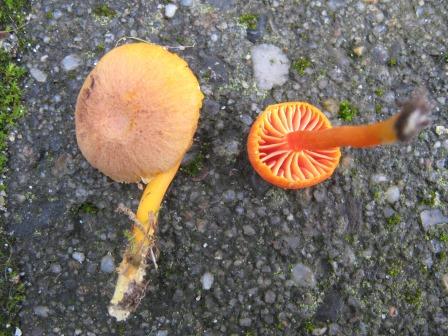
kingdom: Fungi
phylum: Basidiomycota
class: Agaricomycetes
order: Agaricales
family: Hygrophoraceae
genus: Hygrocybe
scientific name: Hygrocybe miniata
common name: mønje-vokshat
